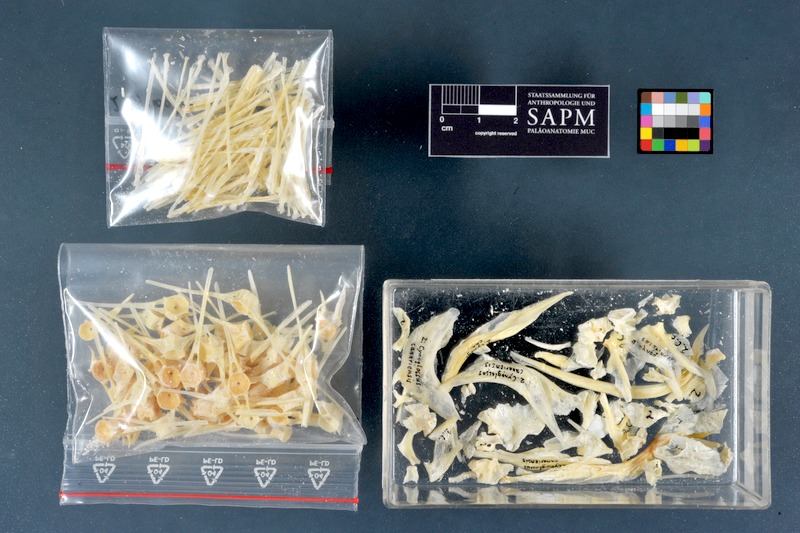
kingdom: Animalia
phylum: Chordata
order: Pleuronectiformes
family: Cynoglossidae
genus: Cynoglossus
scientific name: Cynoglossus canariensis
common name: Canary tonguesole
